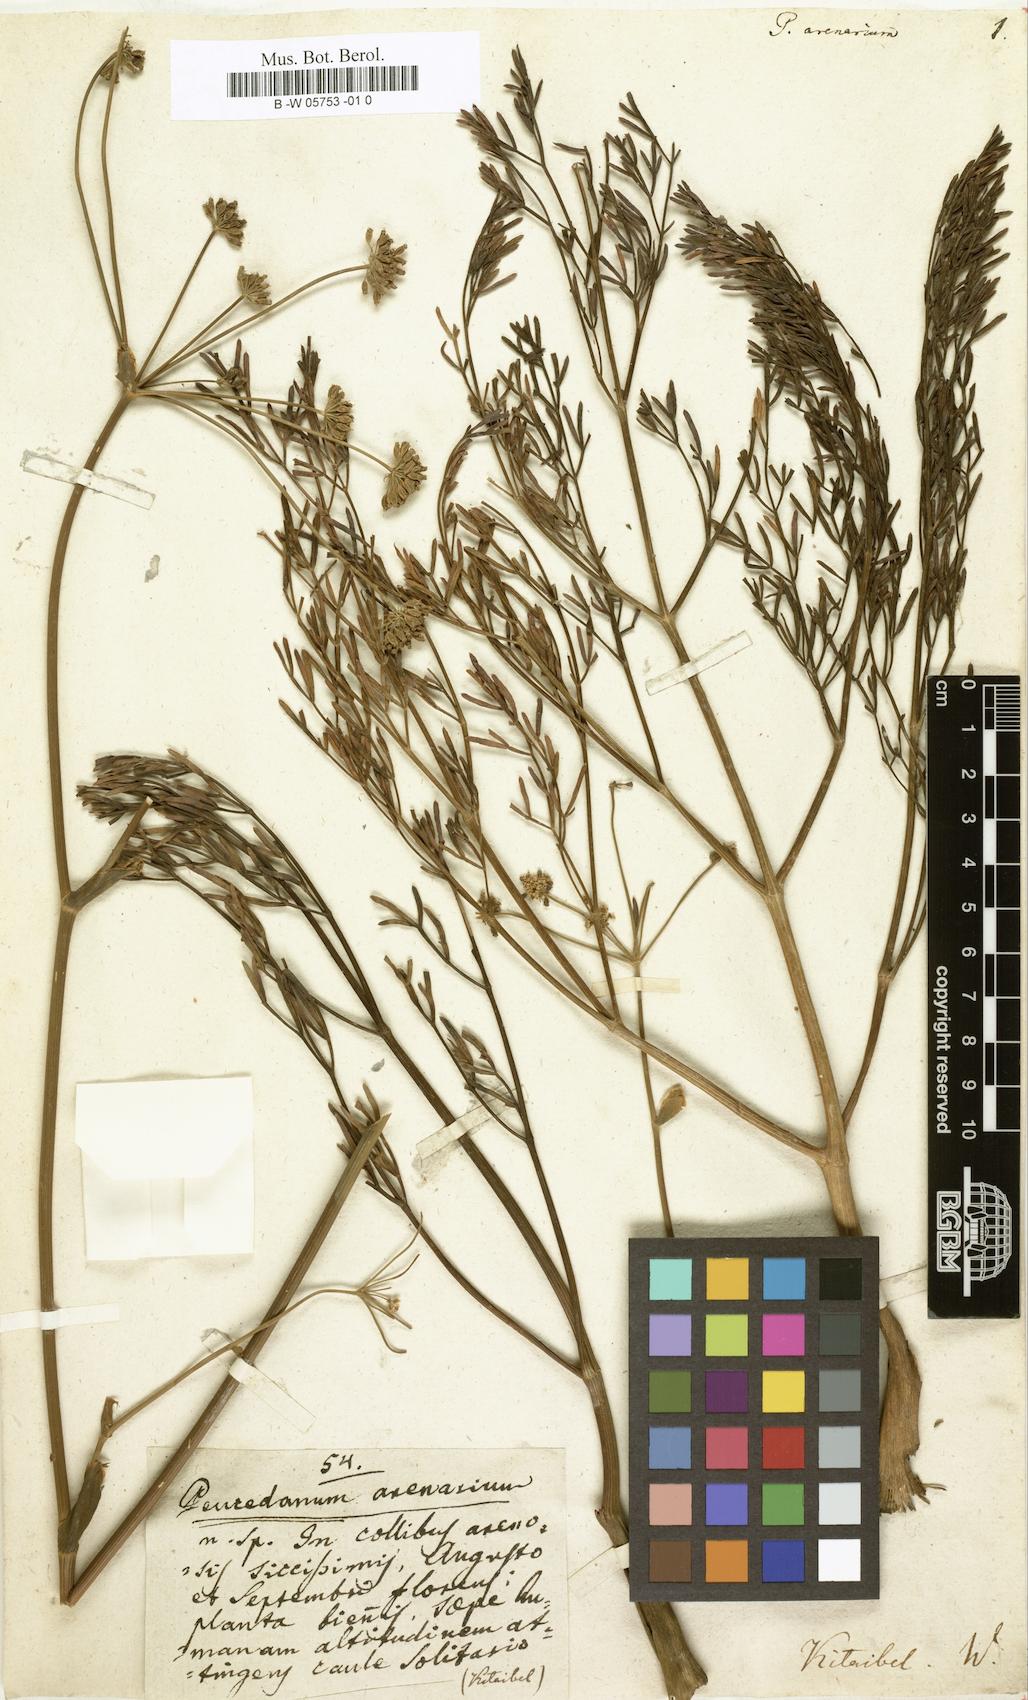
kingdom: Plantae
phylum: Tracheophyta
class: Magnoliopsida
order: Apiales
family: Apiaceae
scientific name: Apiaceae
